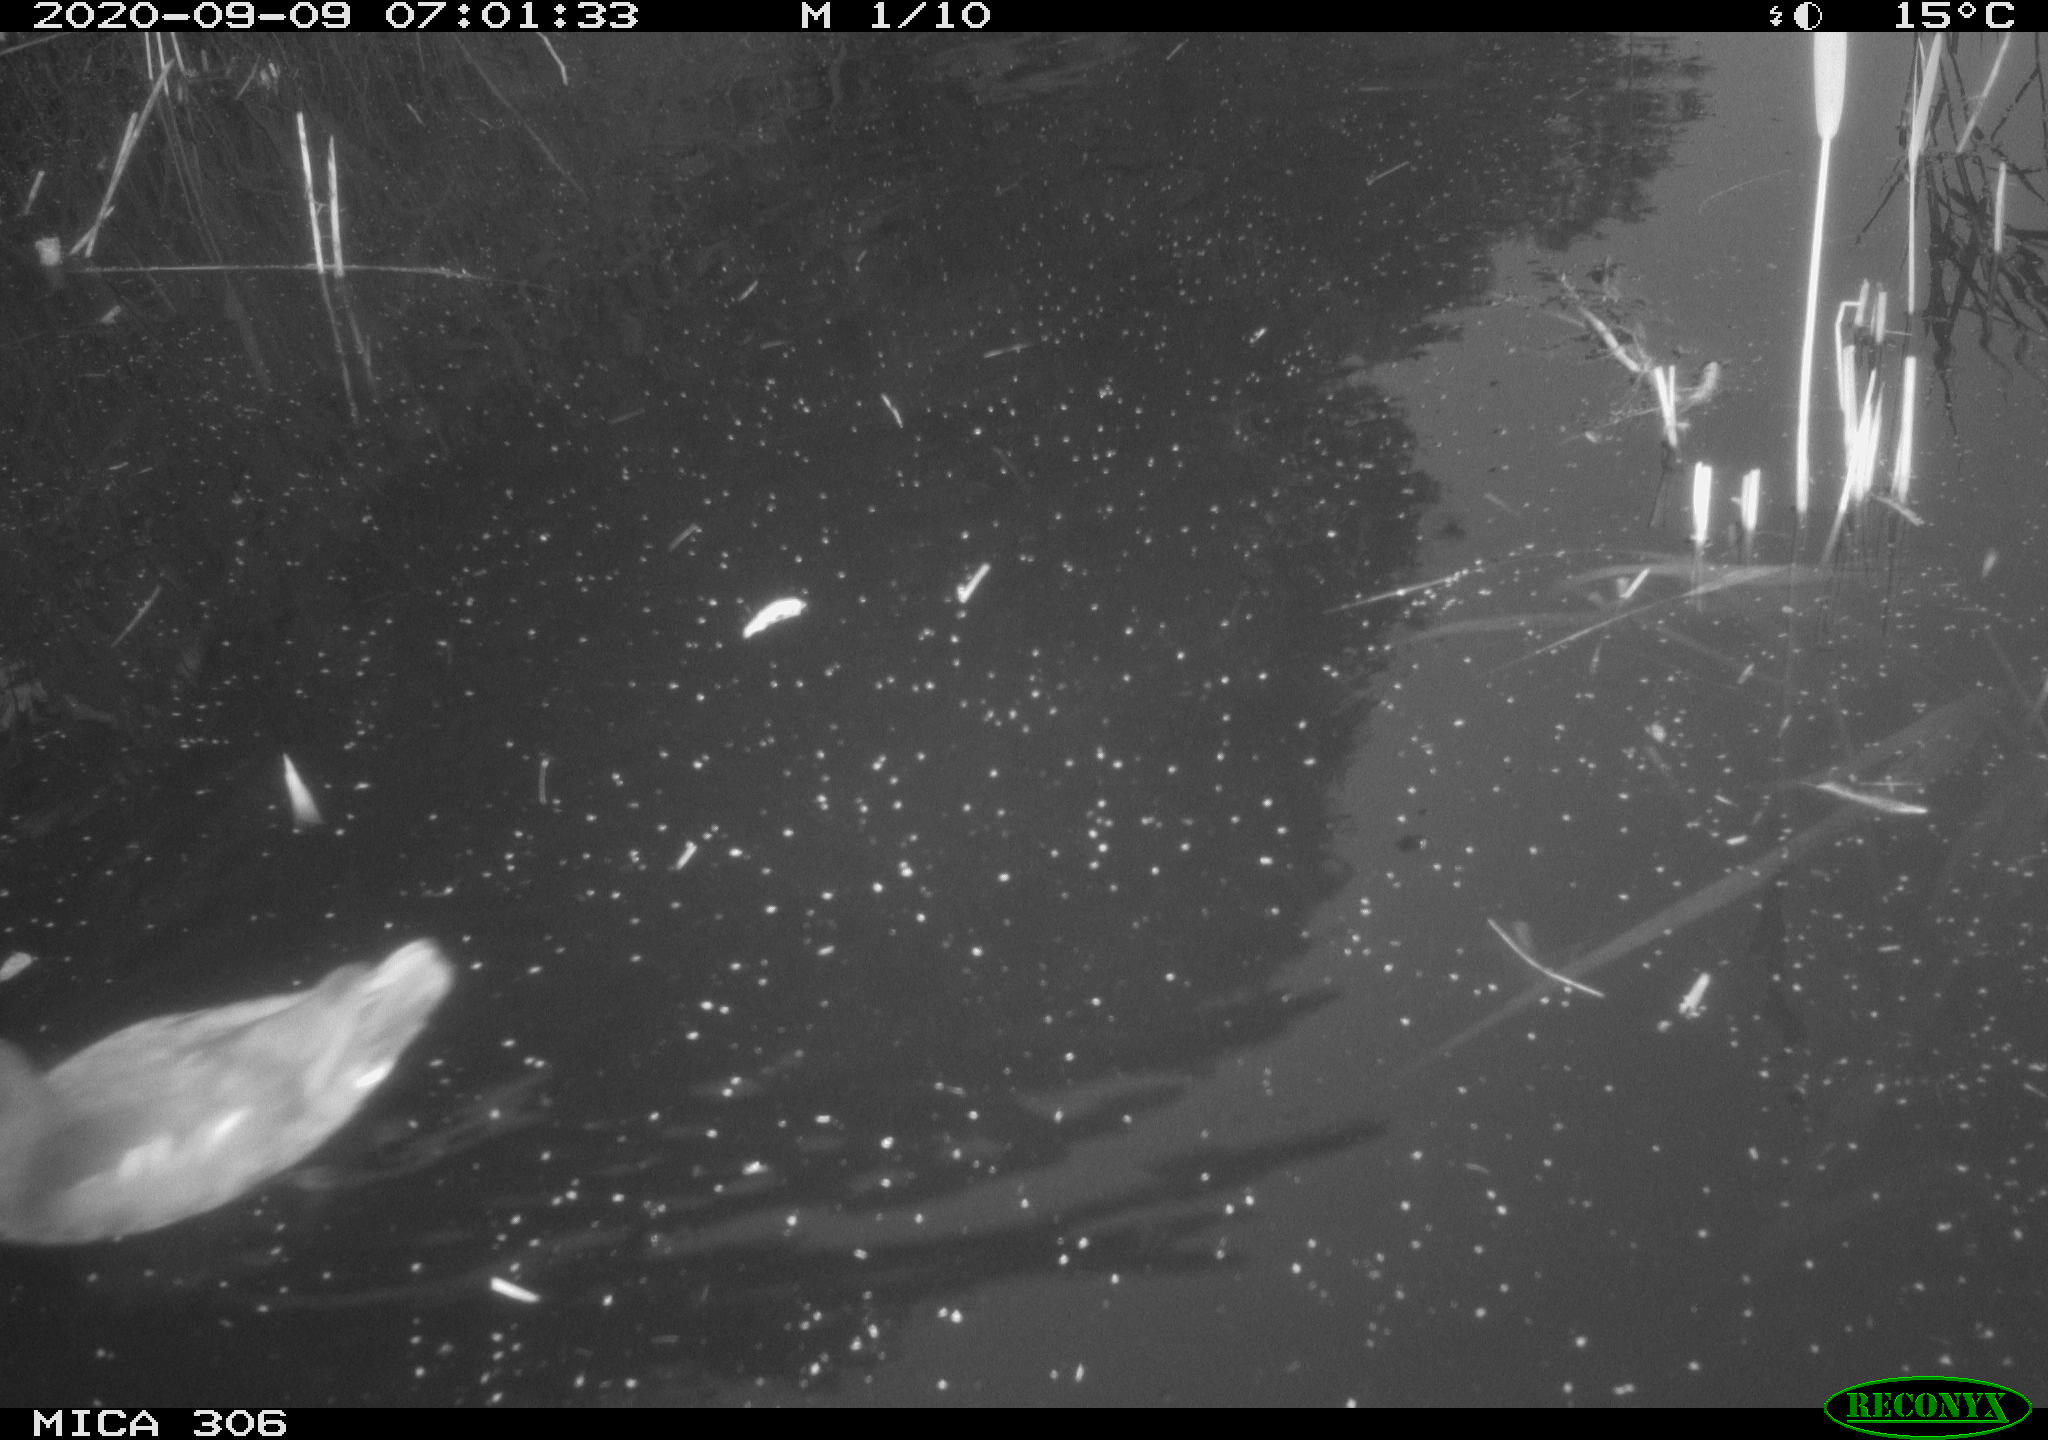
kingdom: Animalia
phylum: Chordata
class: Aves
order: Gruiformes
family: Rallidae
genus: Gallinula
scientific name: Gallinula chloropus
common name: Common moorhen
